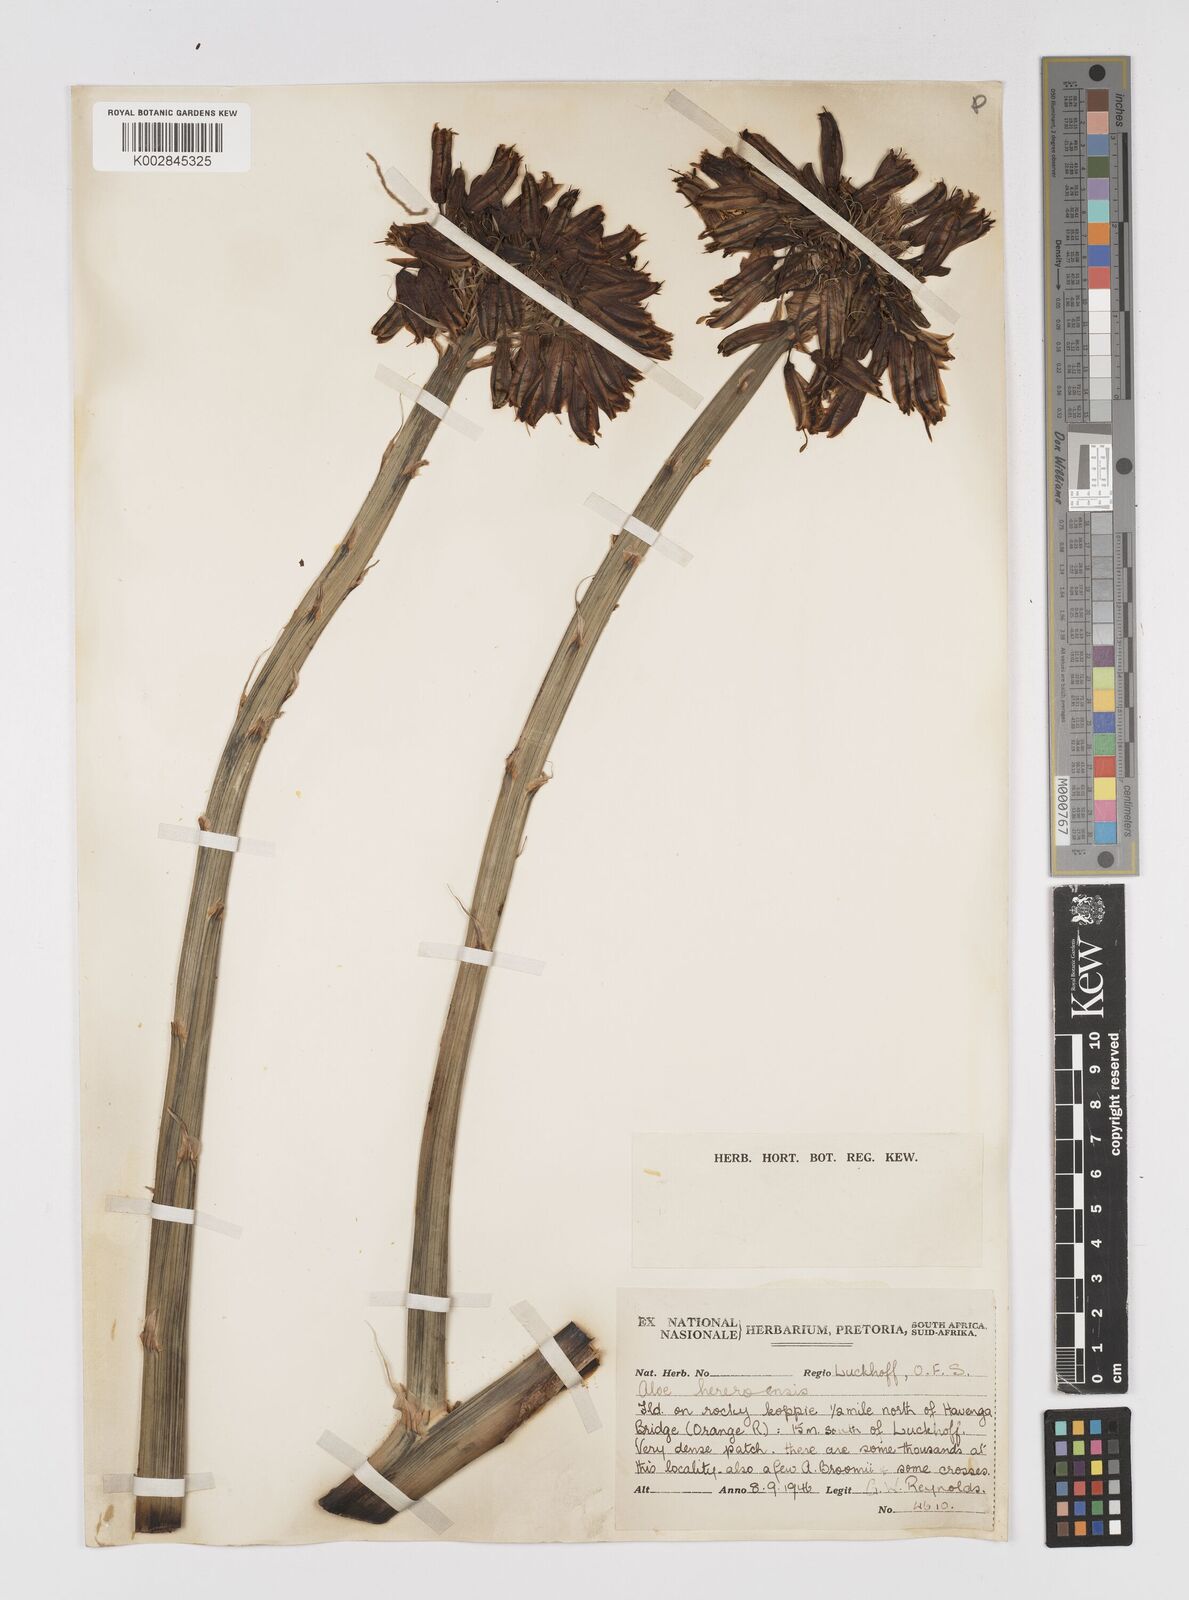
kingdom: Plantae
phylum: Tracheophyta
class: Liliopsida
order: Asparagales
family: Asphodelaceae
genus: Aloe
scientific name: Aloe hereroensis
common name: Herero aloe
